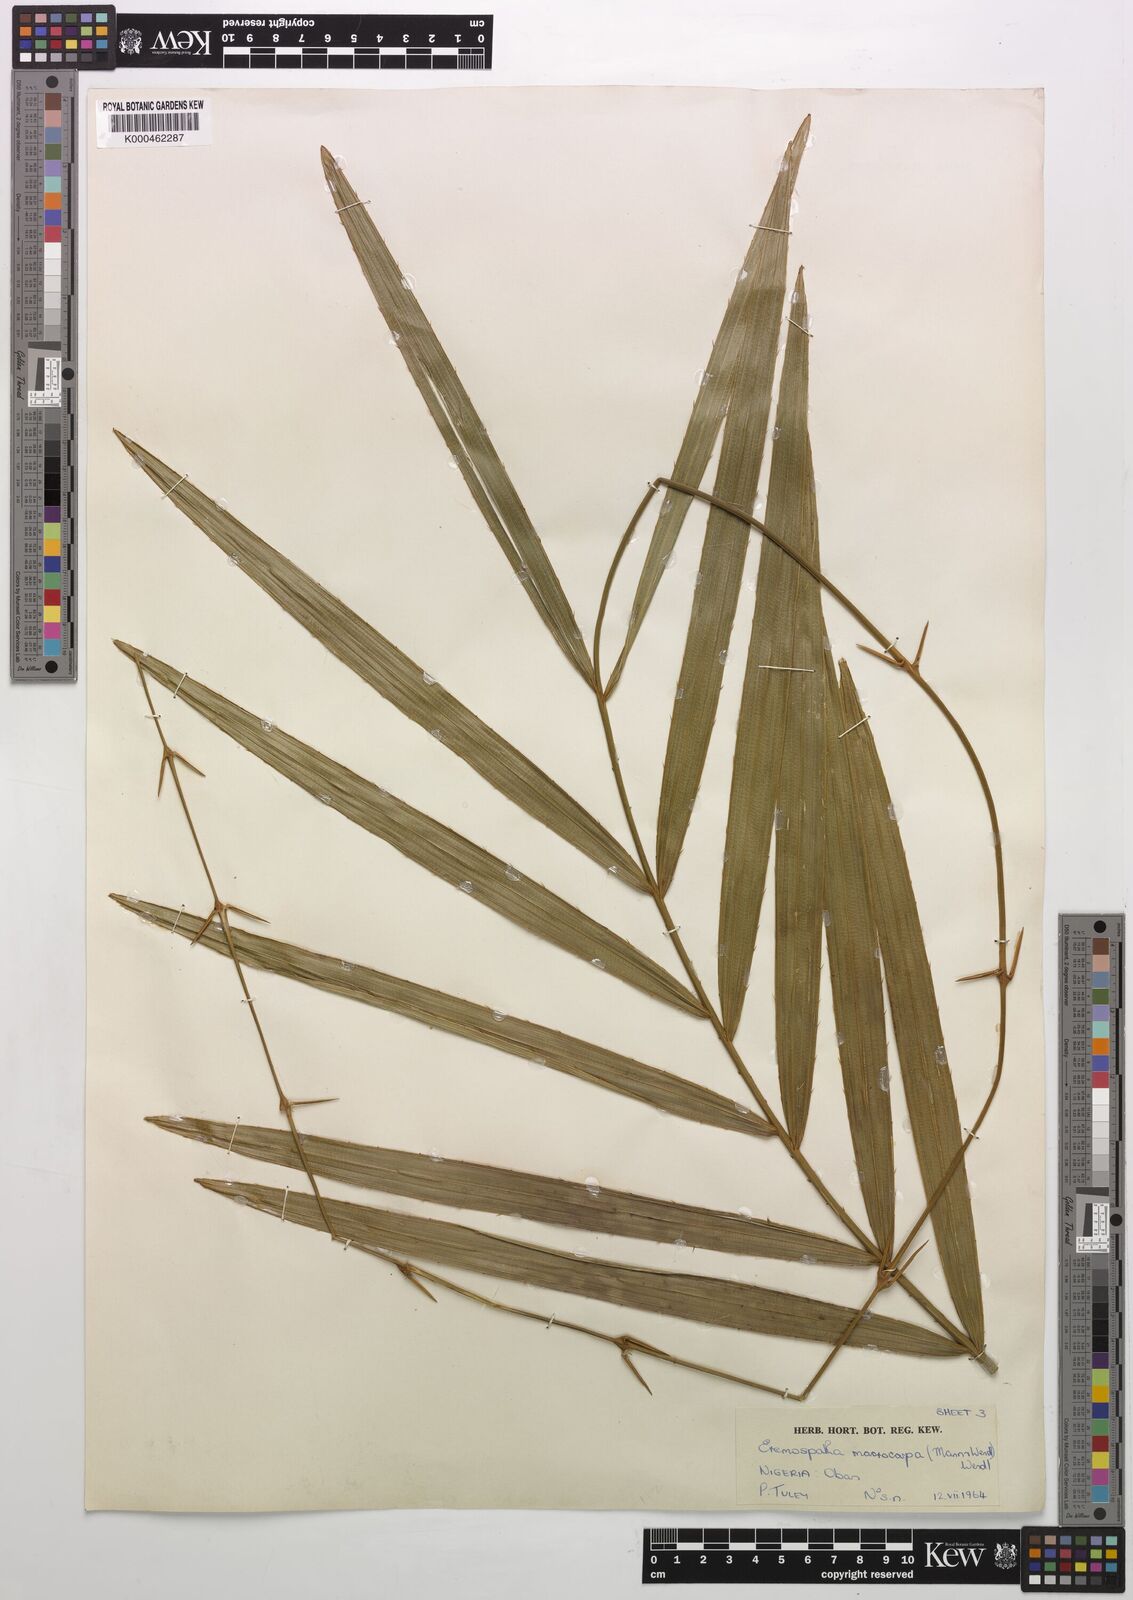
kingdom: Plantae
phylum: Tracheophyta
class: Liliopsida
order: Arecales
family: Arecaceae
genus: Eremospatha
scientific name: Eremospatha
